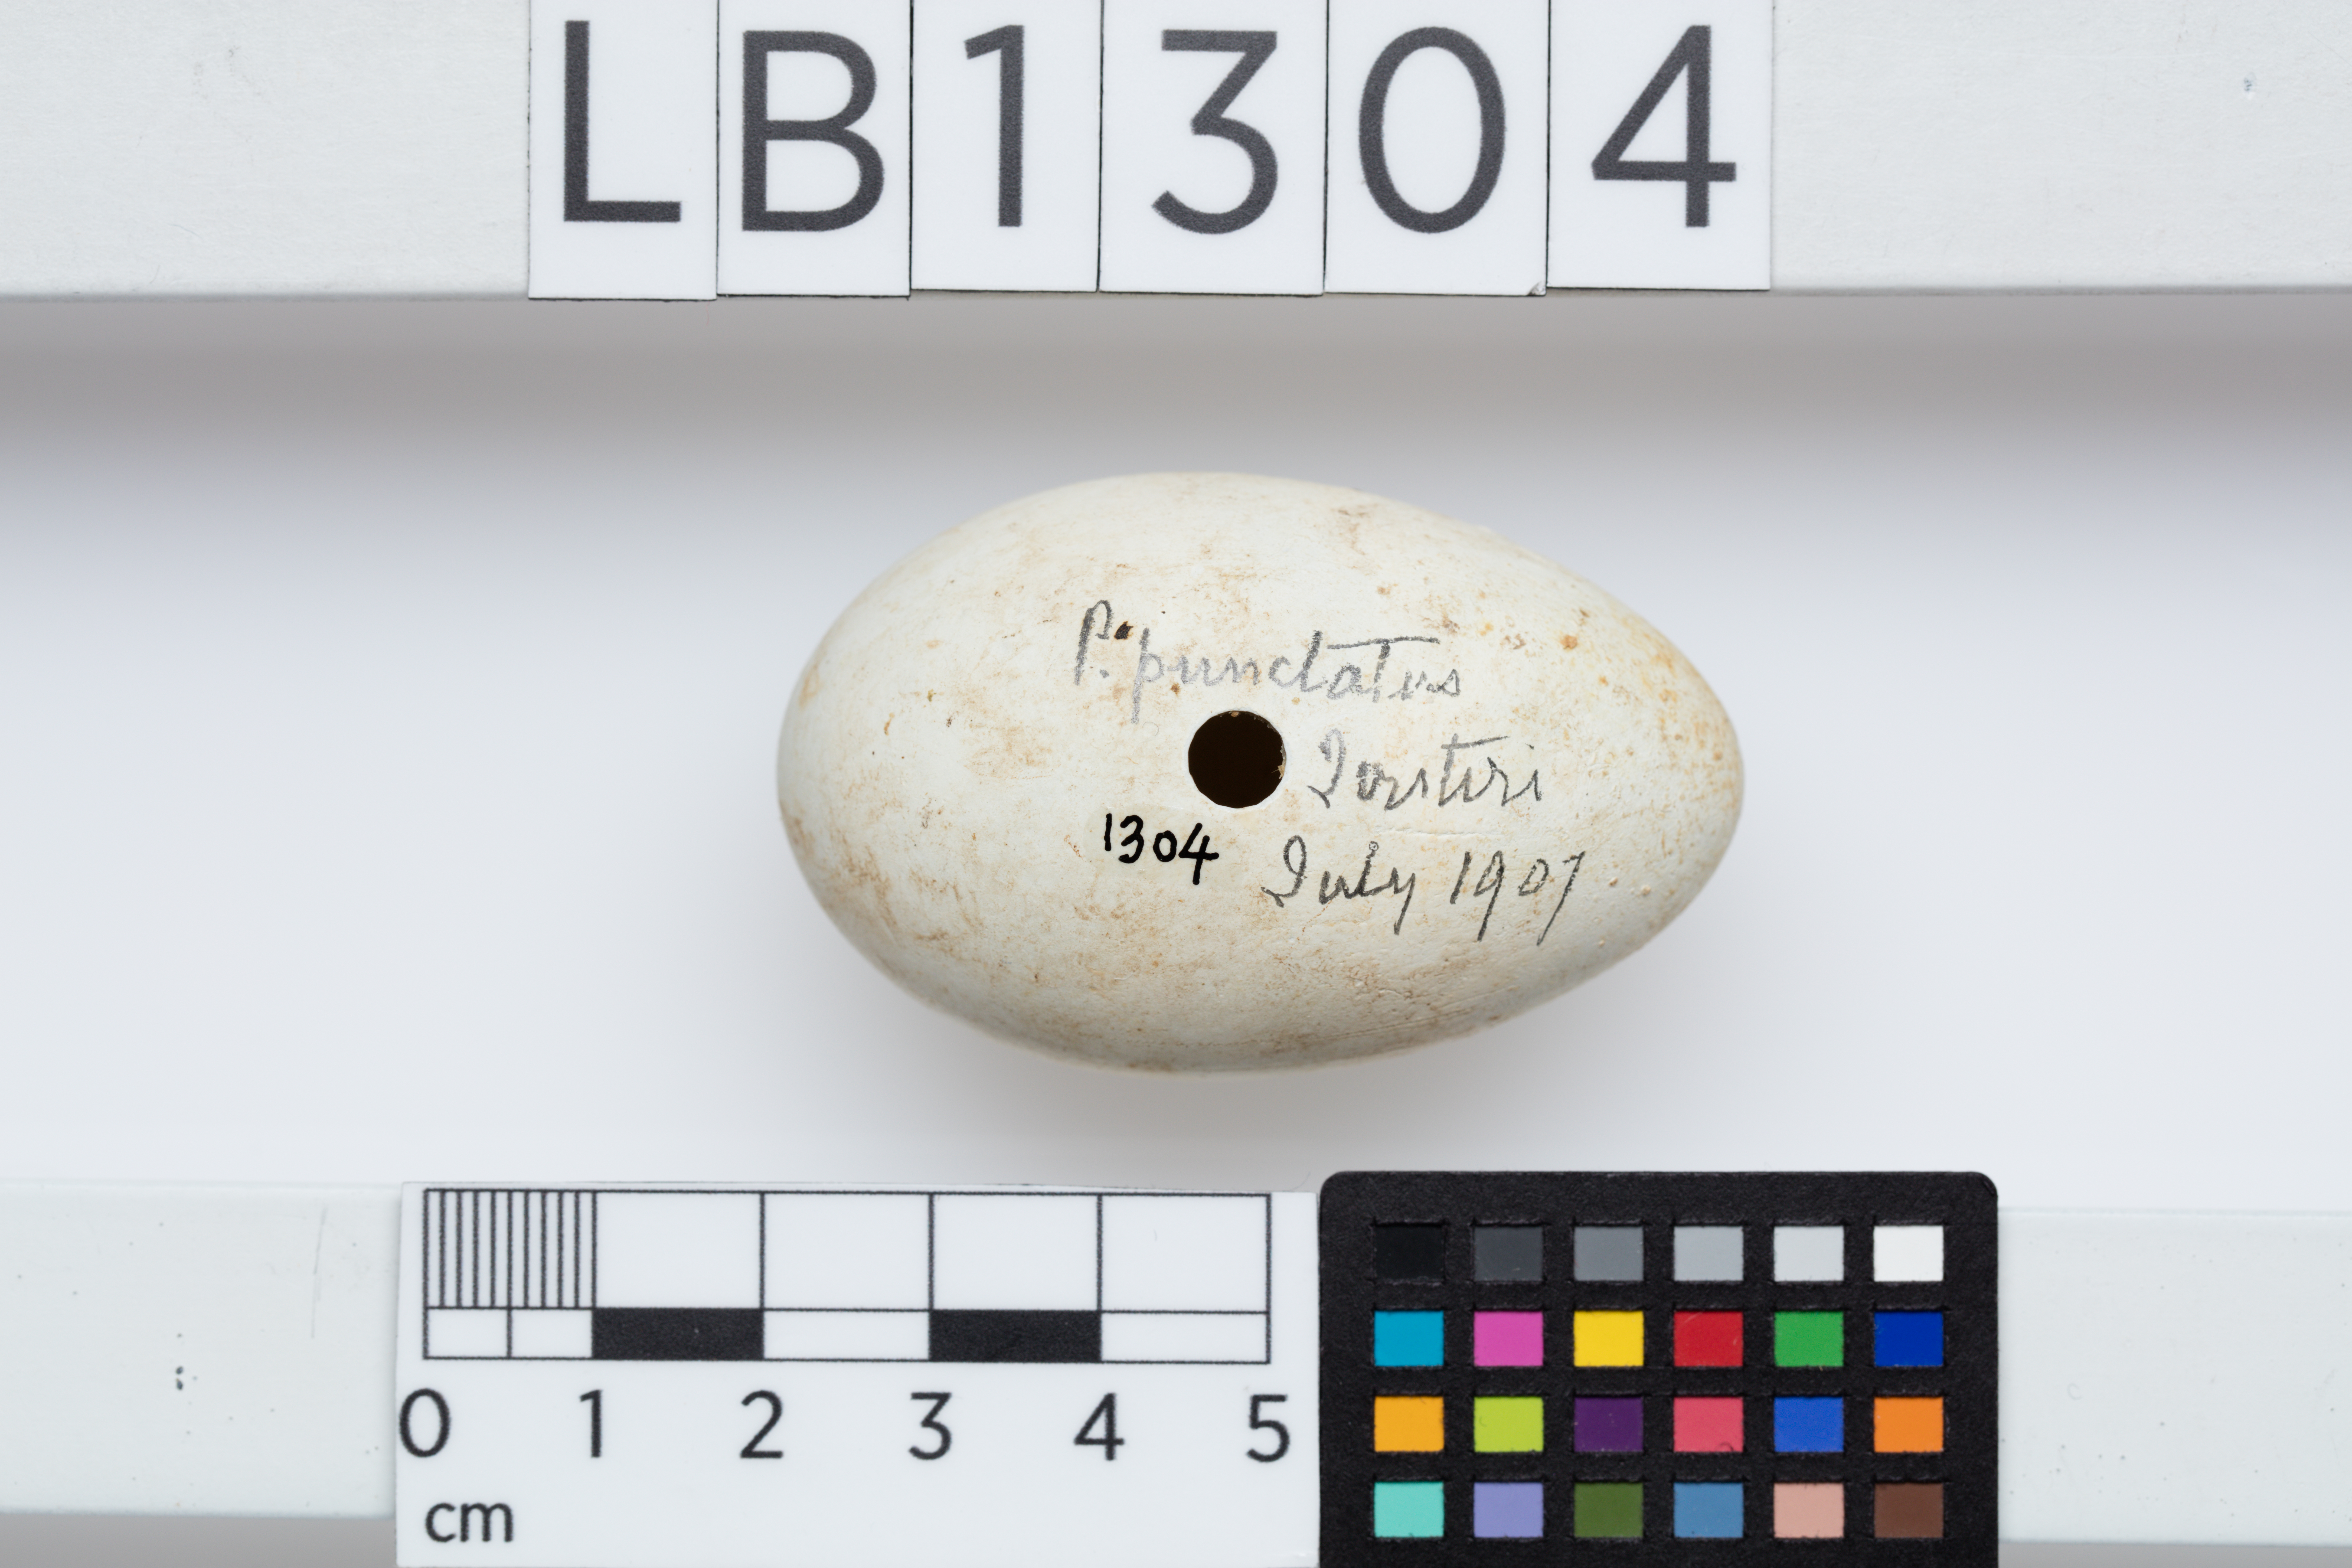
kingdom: Animalia
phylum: Chordata
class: Aves
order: Suliformes
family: Phalacrocoracidae
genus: Phalacrocorax
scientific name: Phalacrocorax punctatus
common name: Spotted shag
